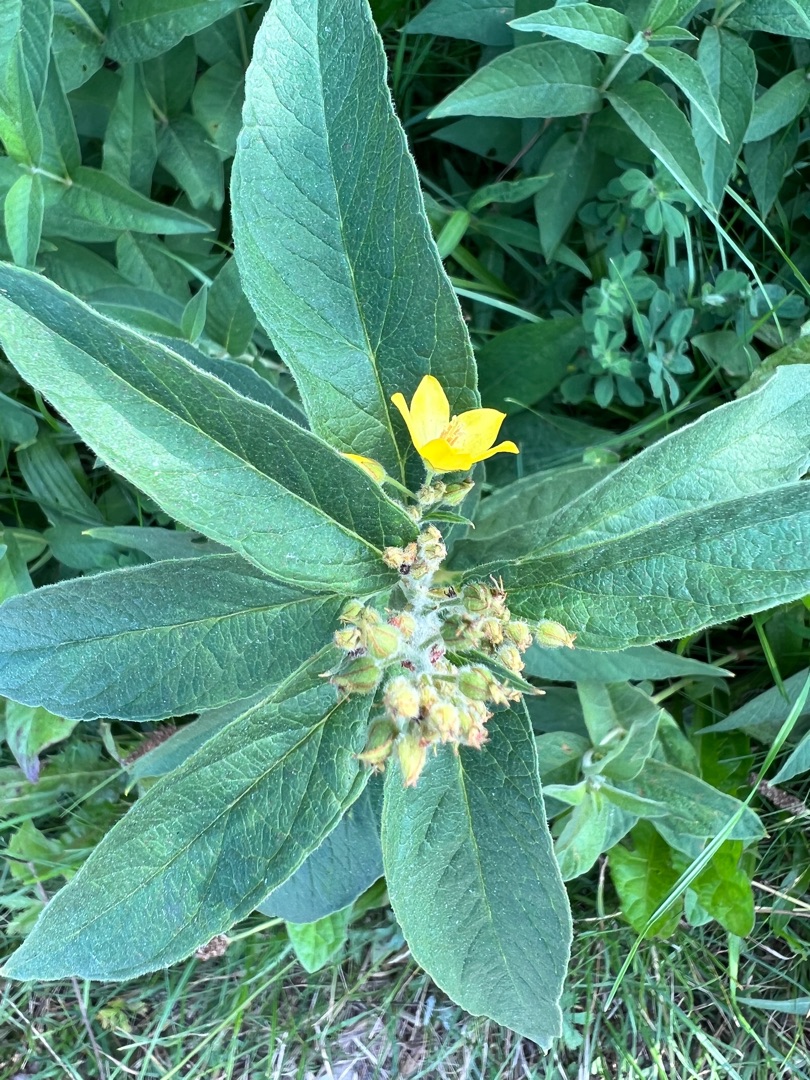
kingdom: Plantae
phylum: Tracheophyta
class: Magnoliopsida
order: Ericales
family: Primulaceae
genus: Lysimachia
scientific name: Lysimachia vulgaris
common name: Almindelig fredløs
